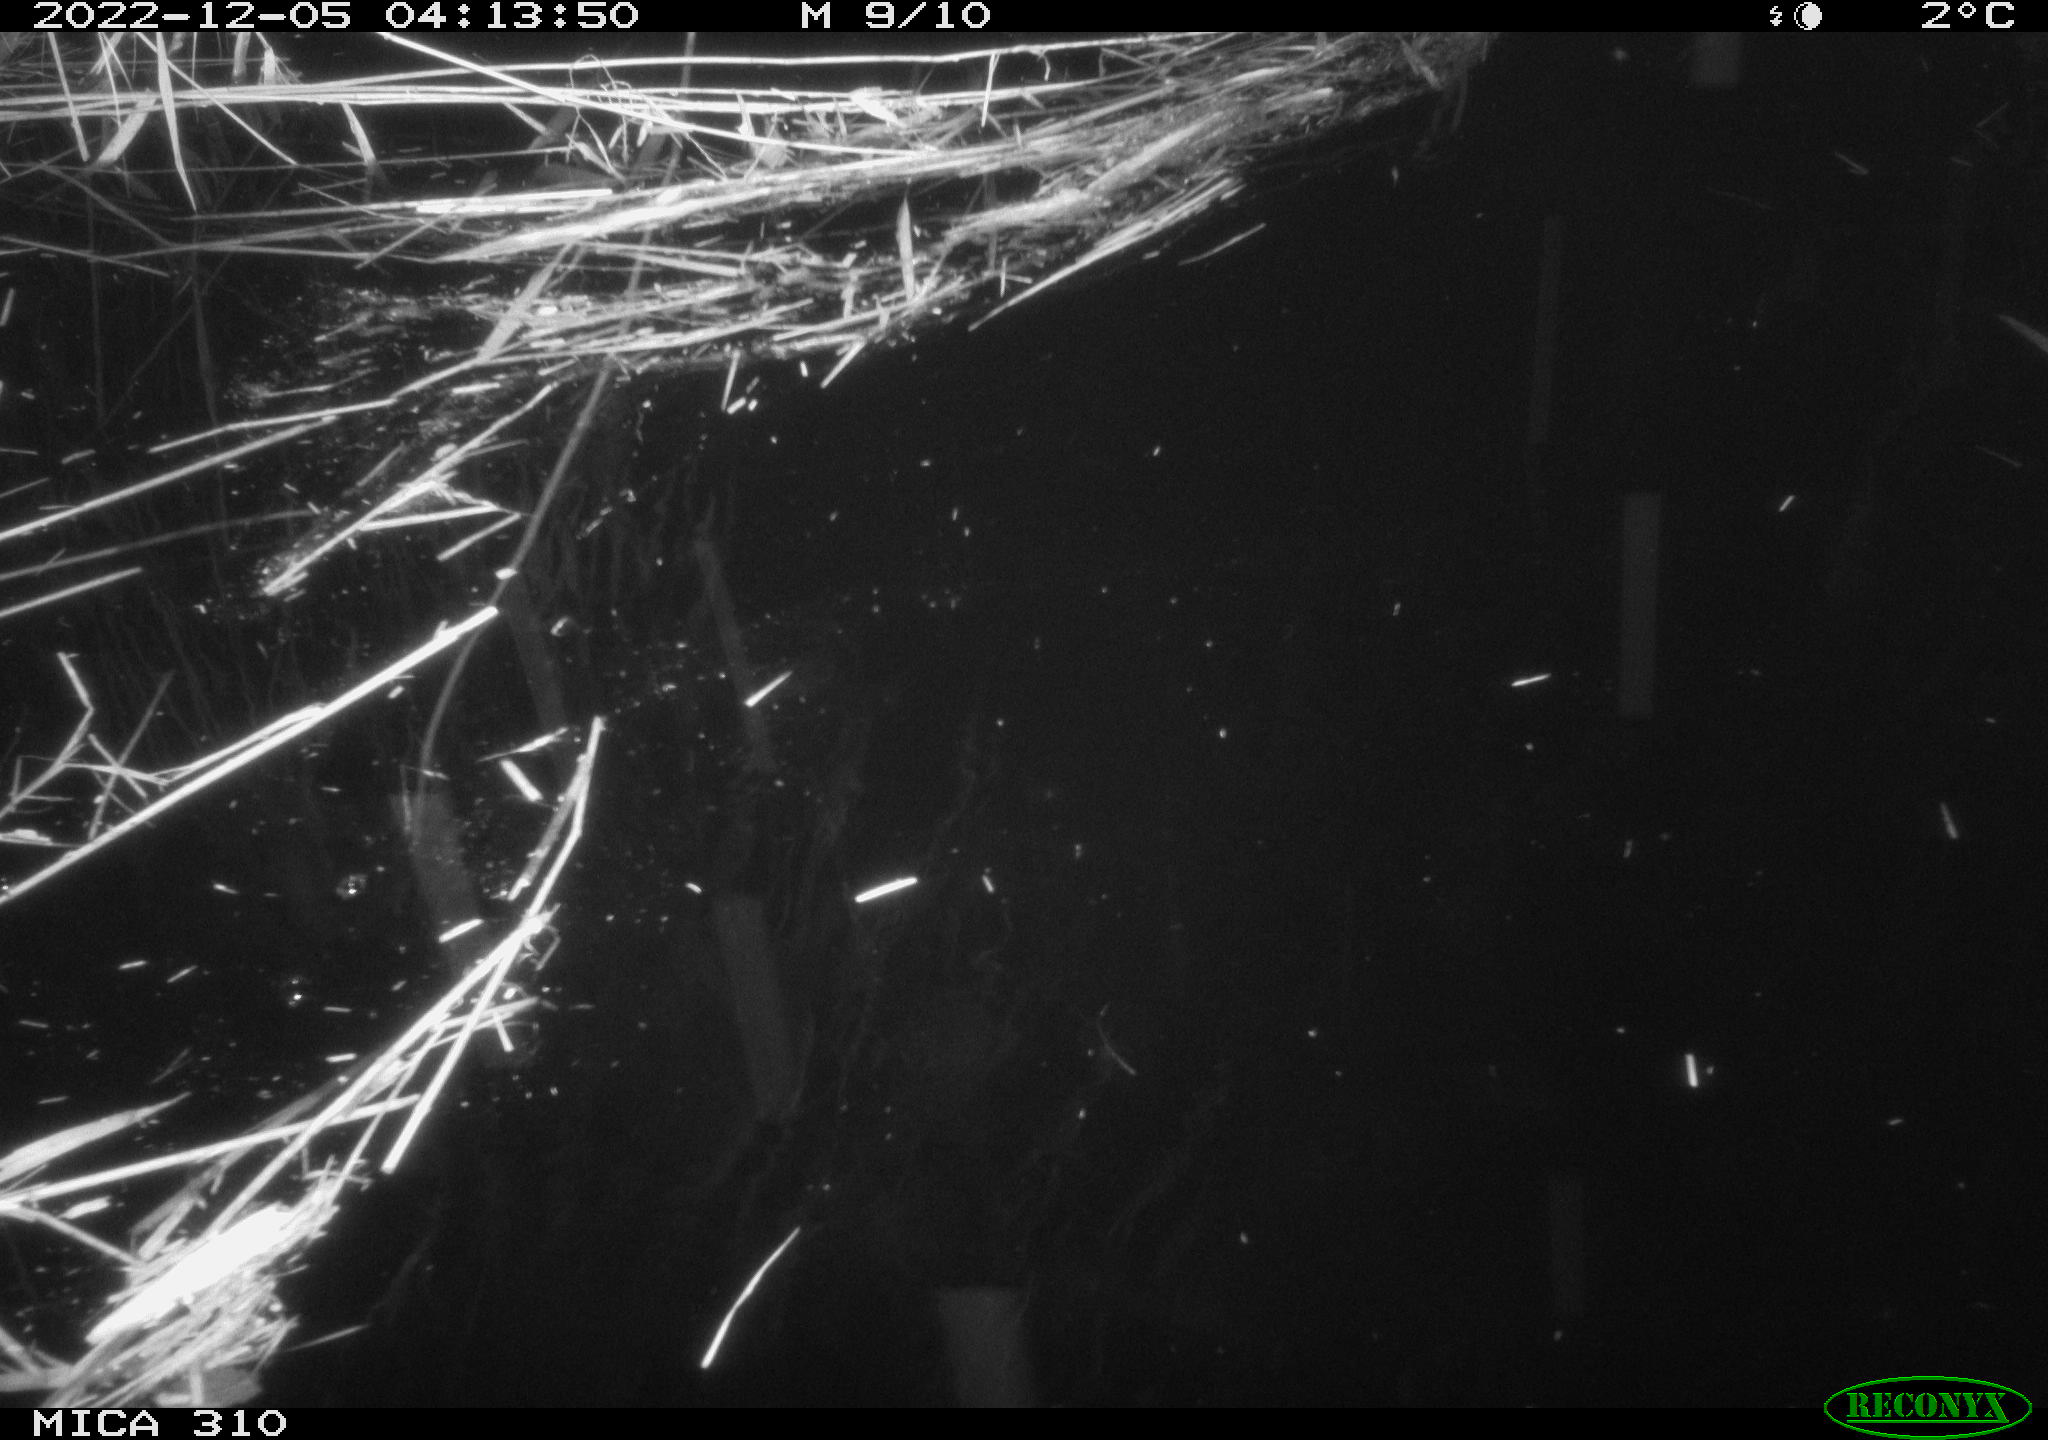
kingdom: Animalia
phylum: Chordata
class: Mammalia
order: Rodentia
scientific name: Rodentia
